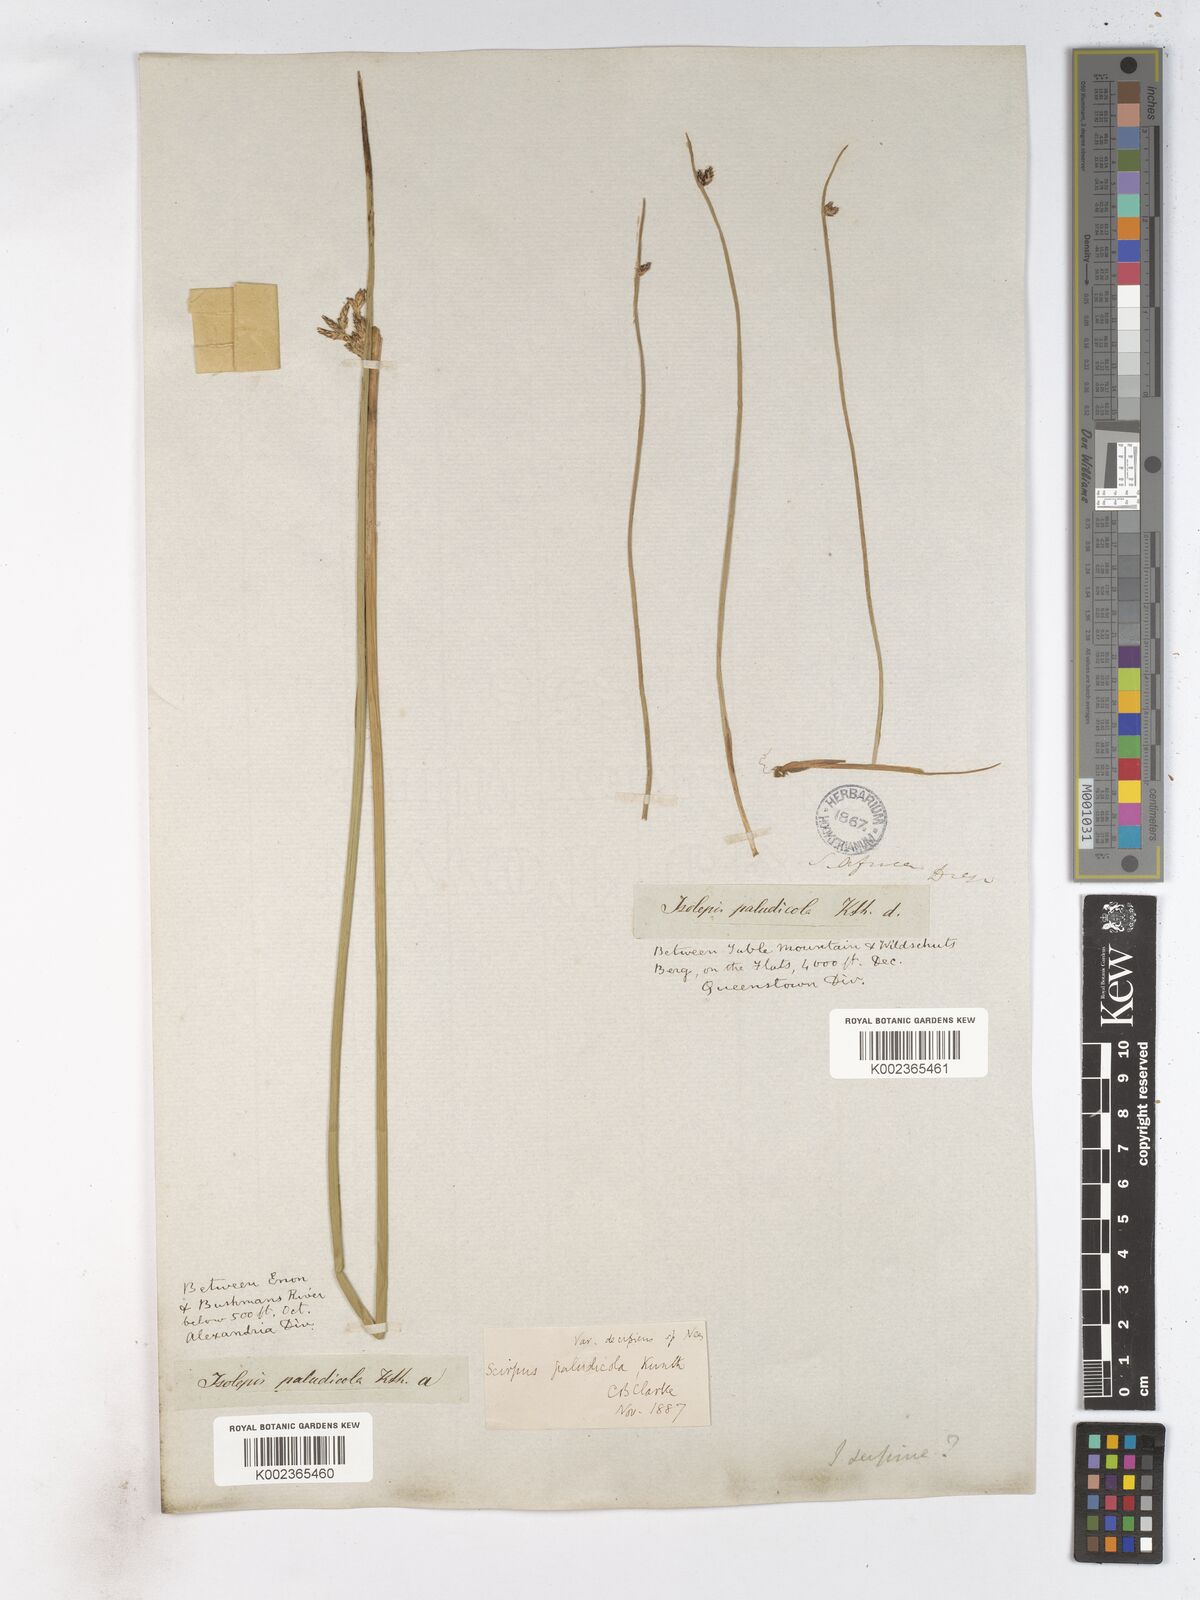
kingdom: Plantae
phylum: Tracheophyta
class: Liliopsida
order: Poales
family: Cyperaceae
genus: Schoenoplectiella
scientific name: Schoenoplectiella paludicola
